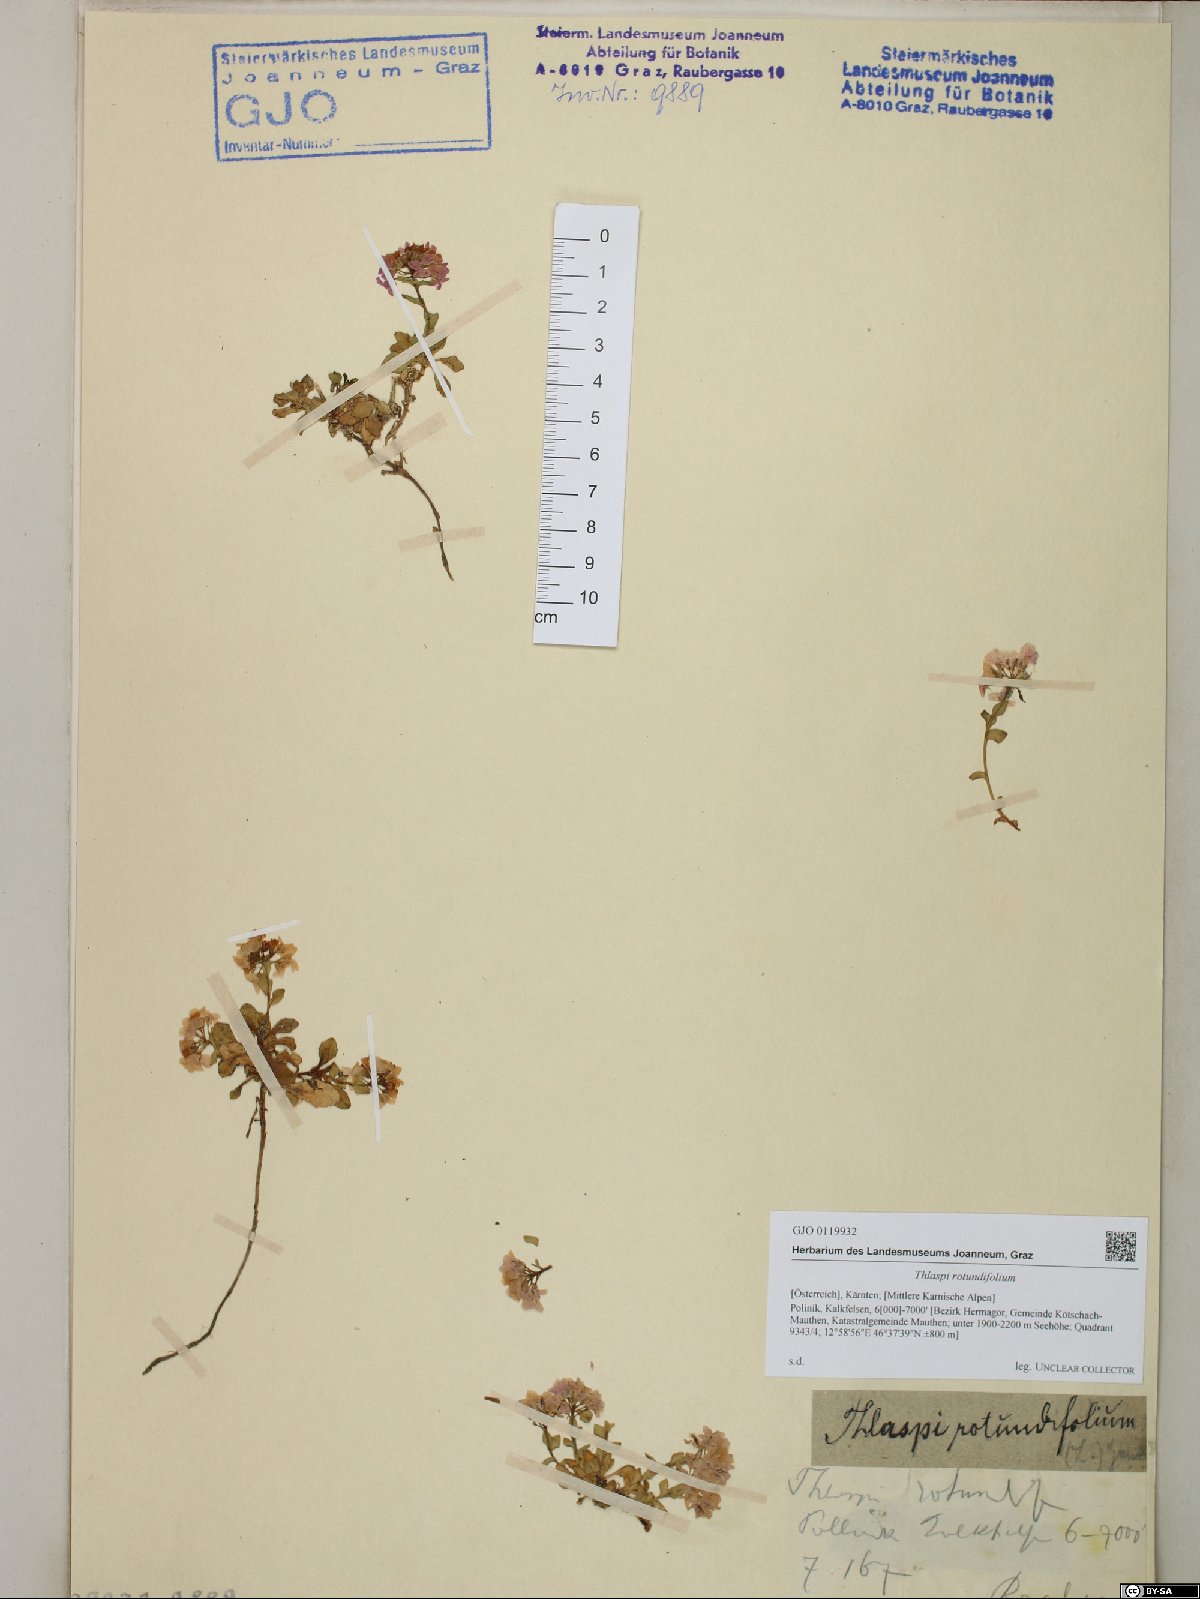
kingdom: Plantae
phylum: Tracheophyta
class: Magnoliopsida
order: Brassicales
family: Brassicaceae
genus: Noccaea
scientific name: Noccaea rotundifolia
